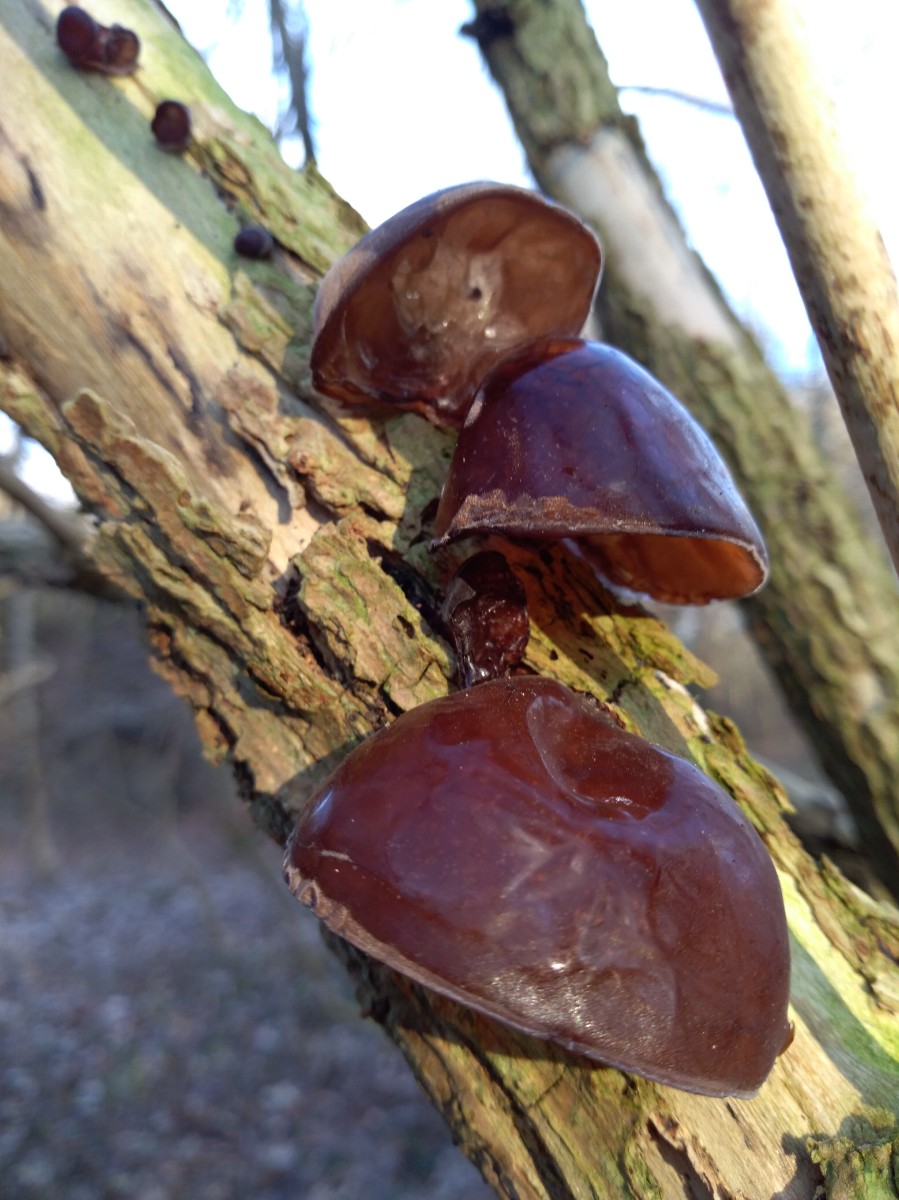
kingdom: Fungi
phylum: Basidiomycota
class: Agaricomycetes
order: Auriculariales
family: Auriculariaceae
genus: Auricularia
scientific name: Auricularia auricula-judae
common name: almindelig judasøre
